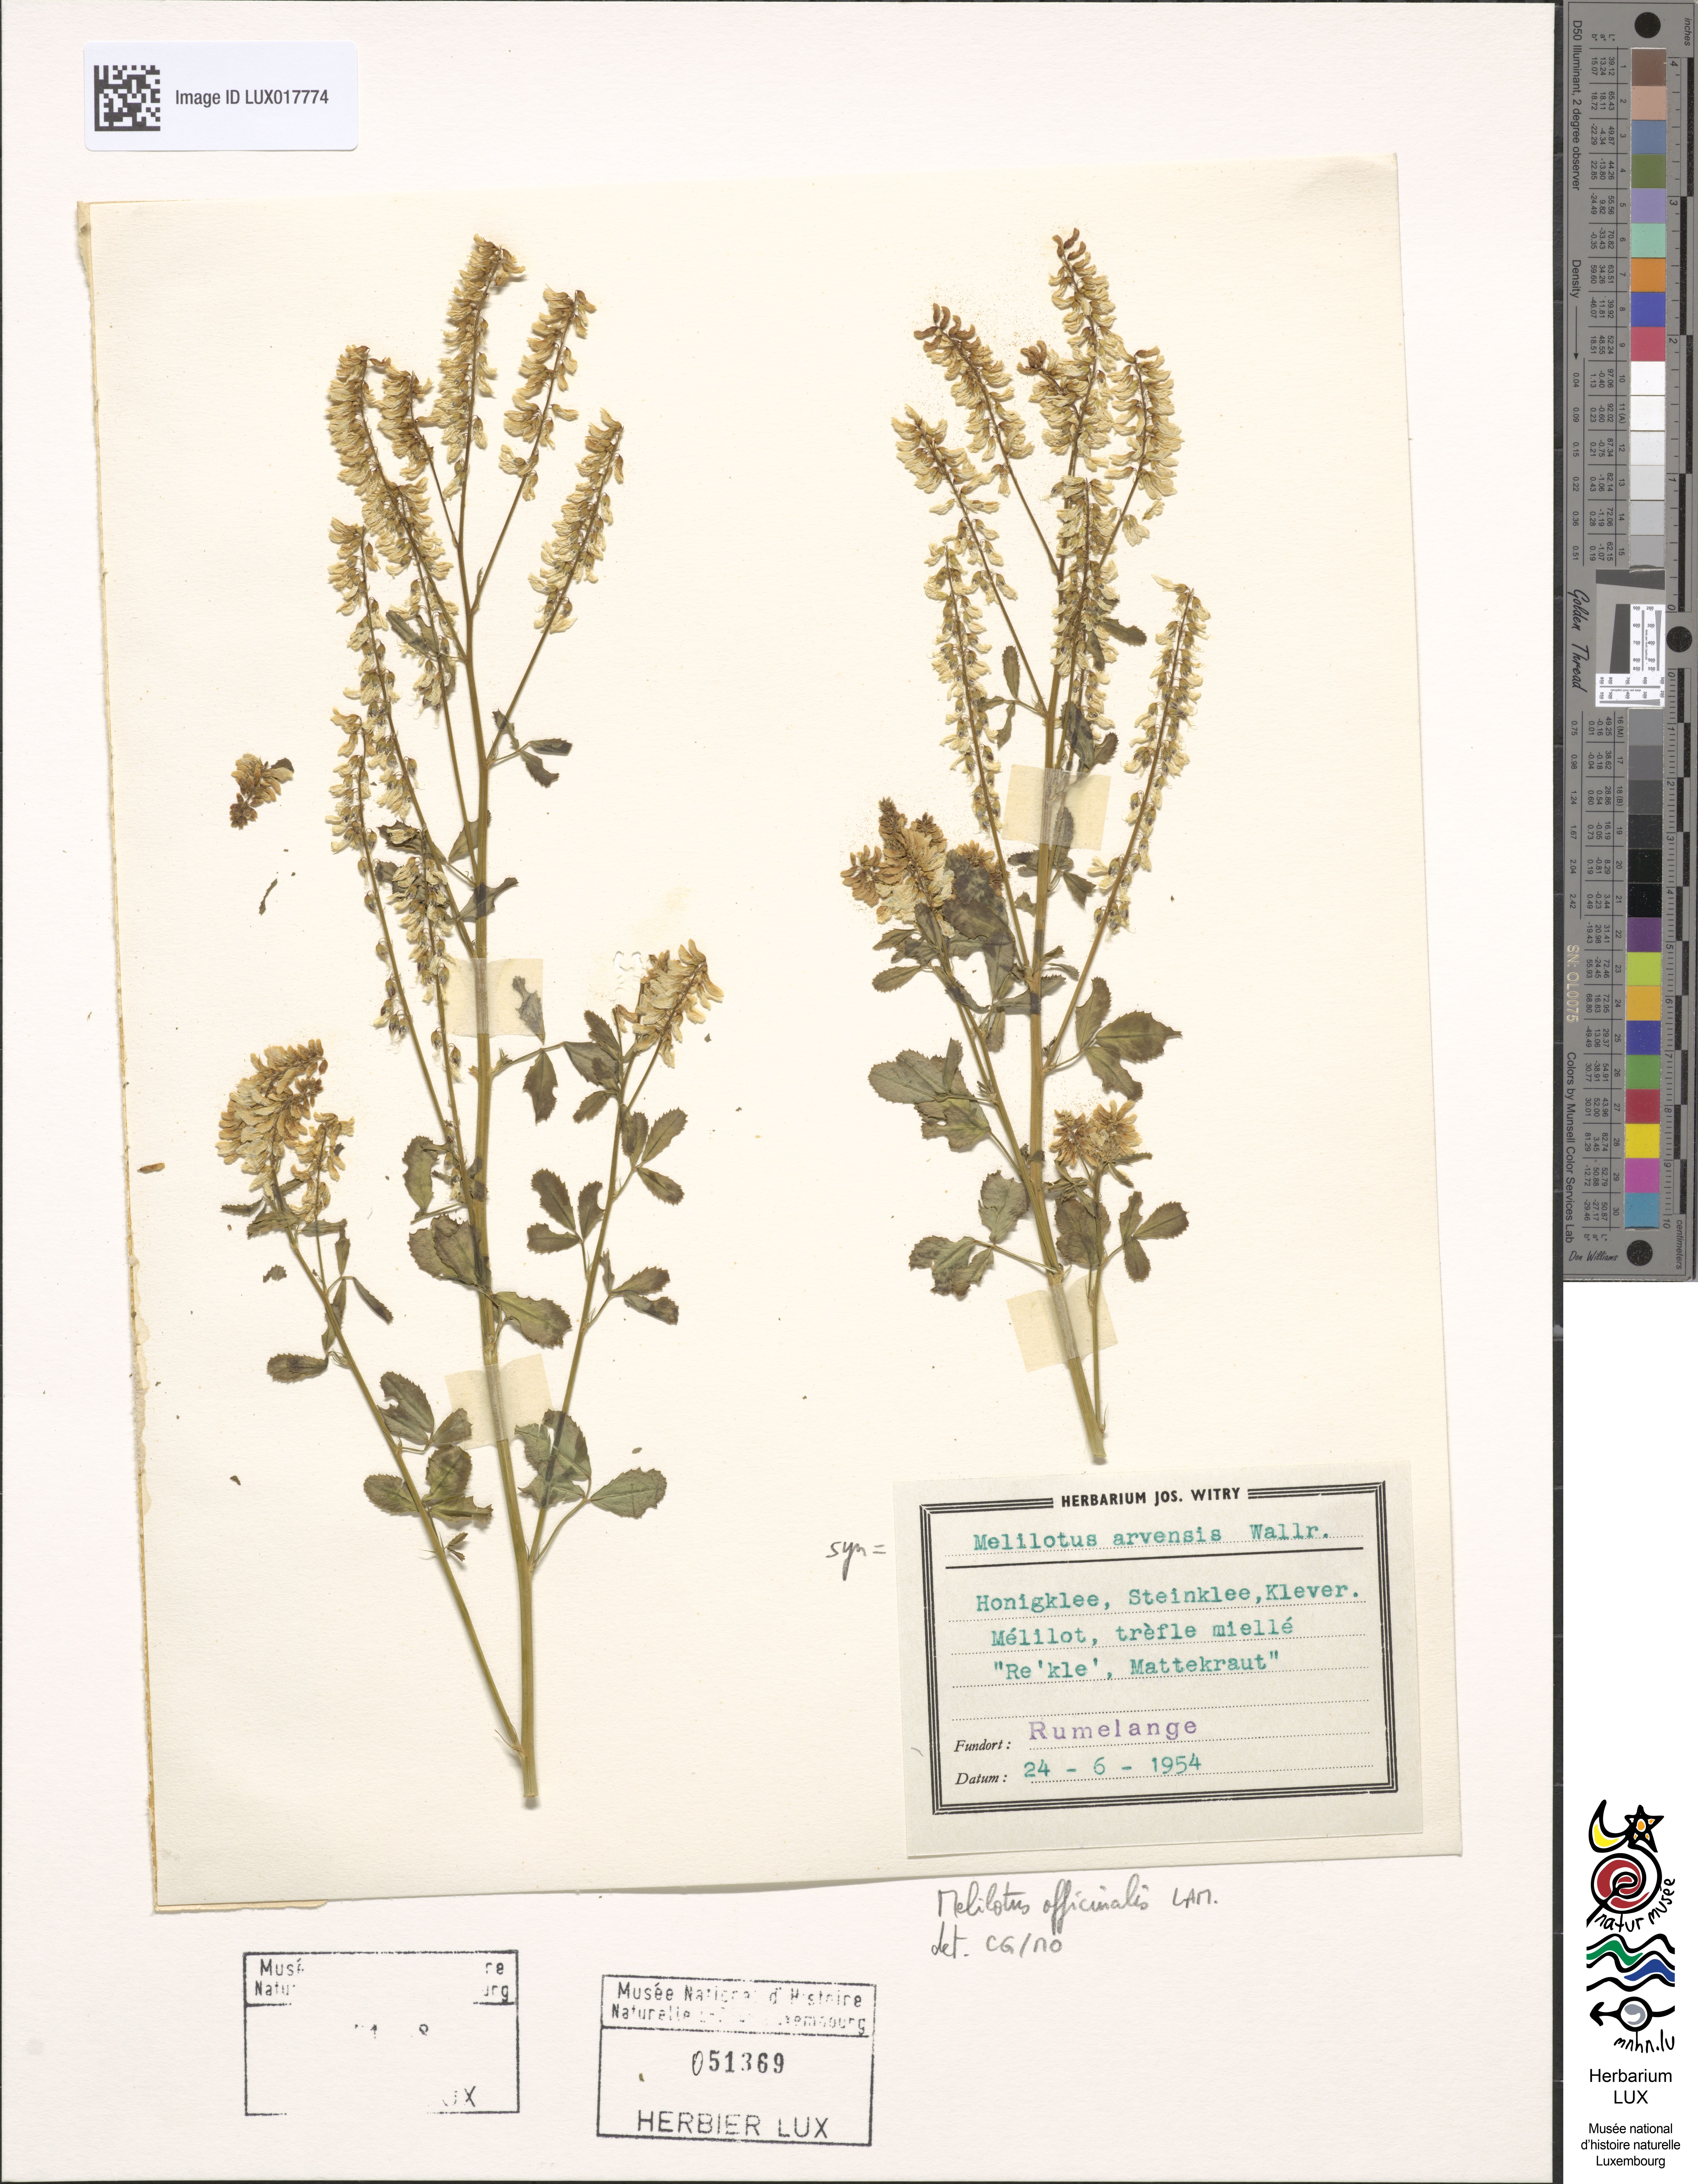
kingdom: Plantae
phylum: Tracheophyta
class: Magnoliopsida
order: Fabales
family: Fabaceae
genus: Melilotus
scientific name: Melilotus officinalis
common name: Sweetclover
